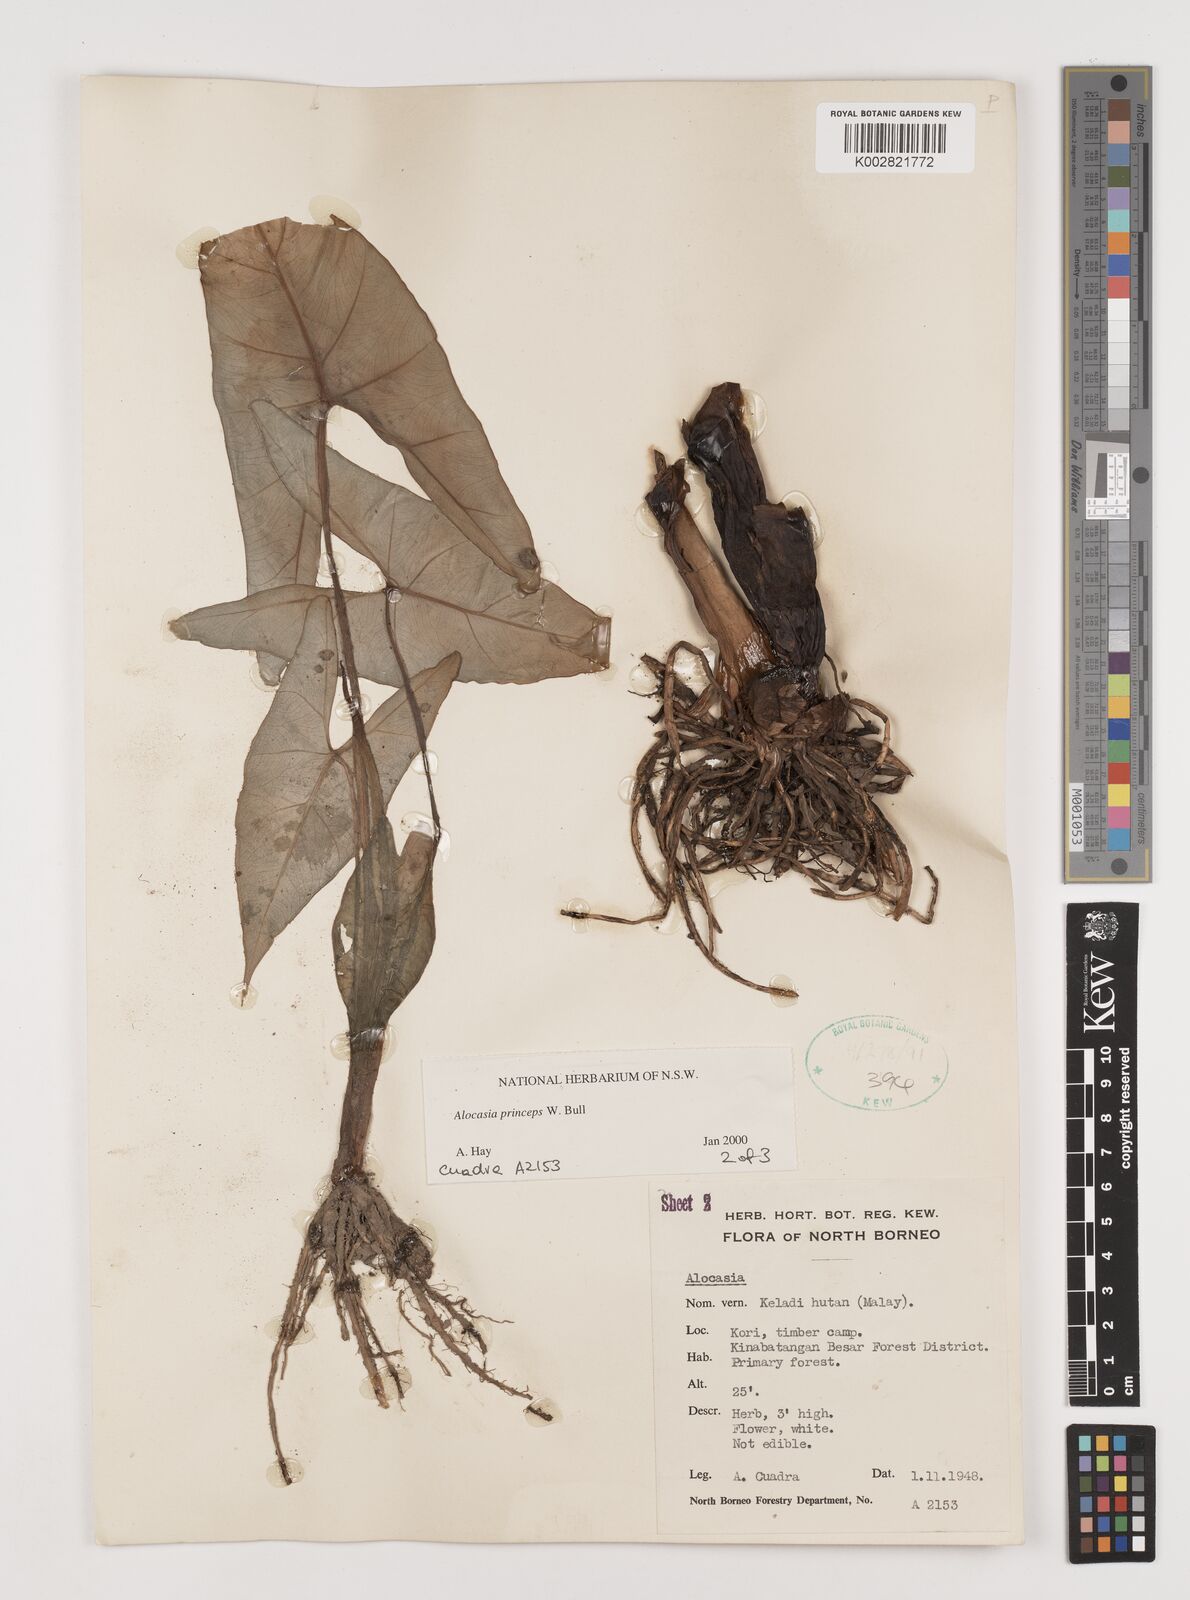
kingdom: Plantae
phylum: Tracheophyta
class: Liliopsida
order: Alismatales
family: Araceae
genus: Alocasia
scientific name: Alocasia princeps
